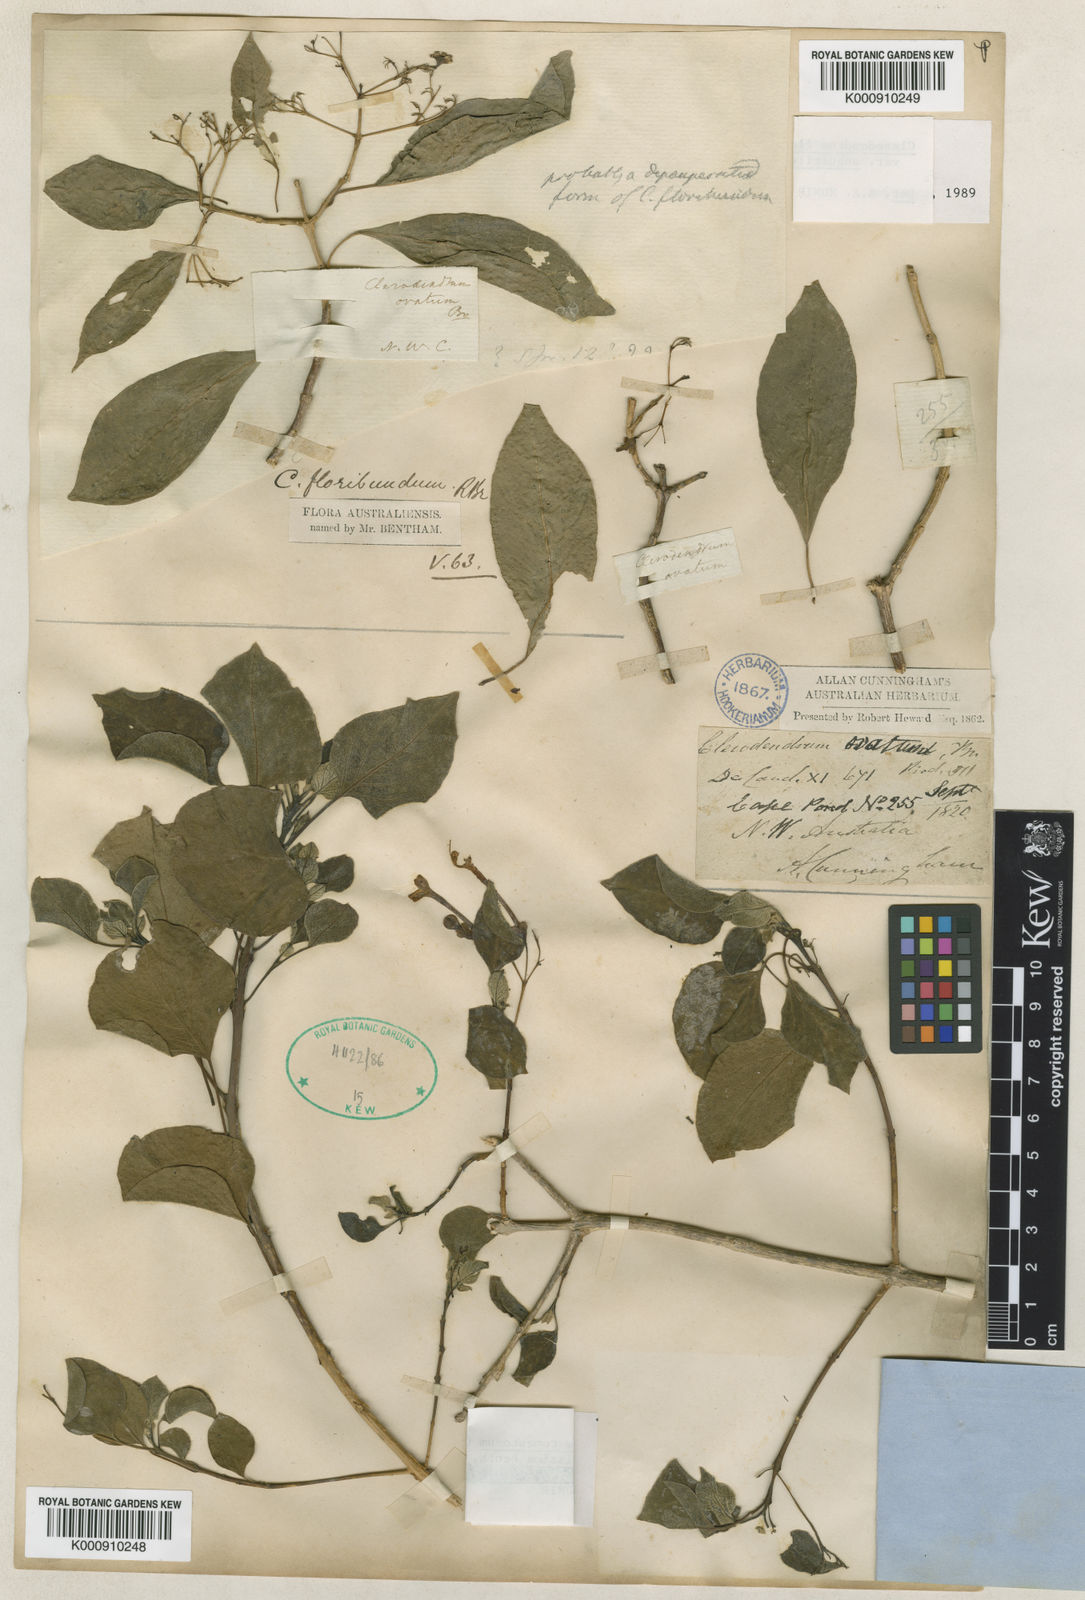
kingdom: Plantae
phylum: Tracheophyta
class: Magnoliopsida
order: Lamiales
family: Lamiaceae
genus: Clerodendrum
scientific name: Clerodendrum floribundum
